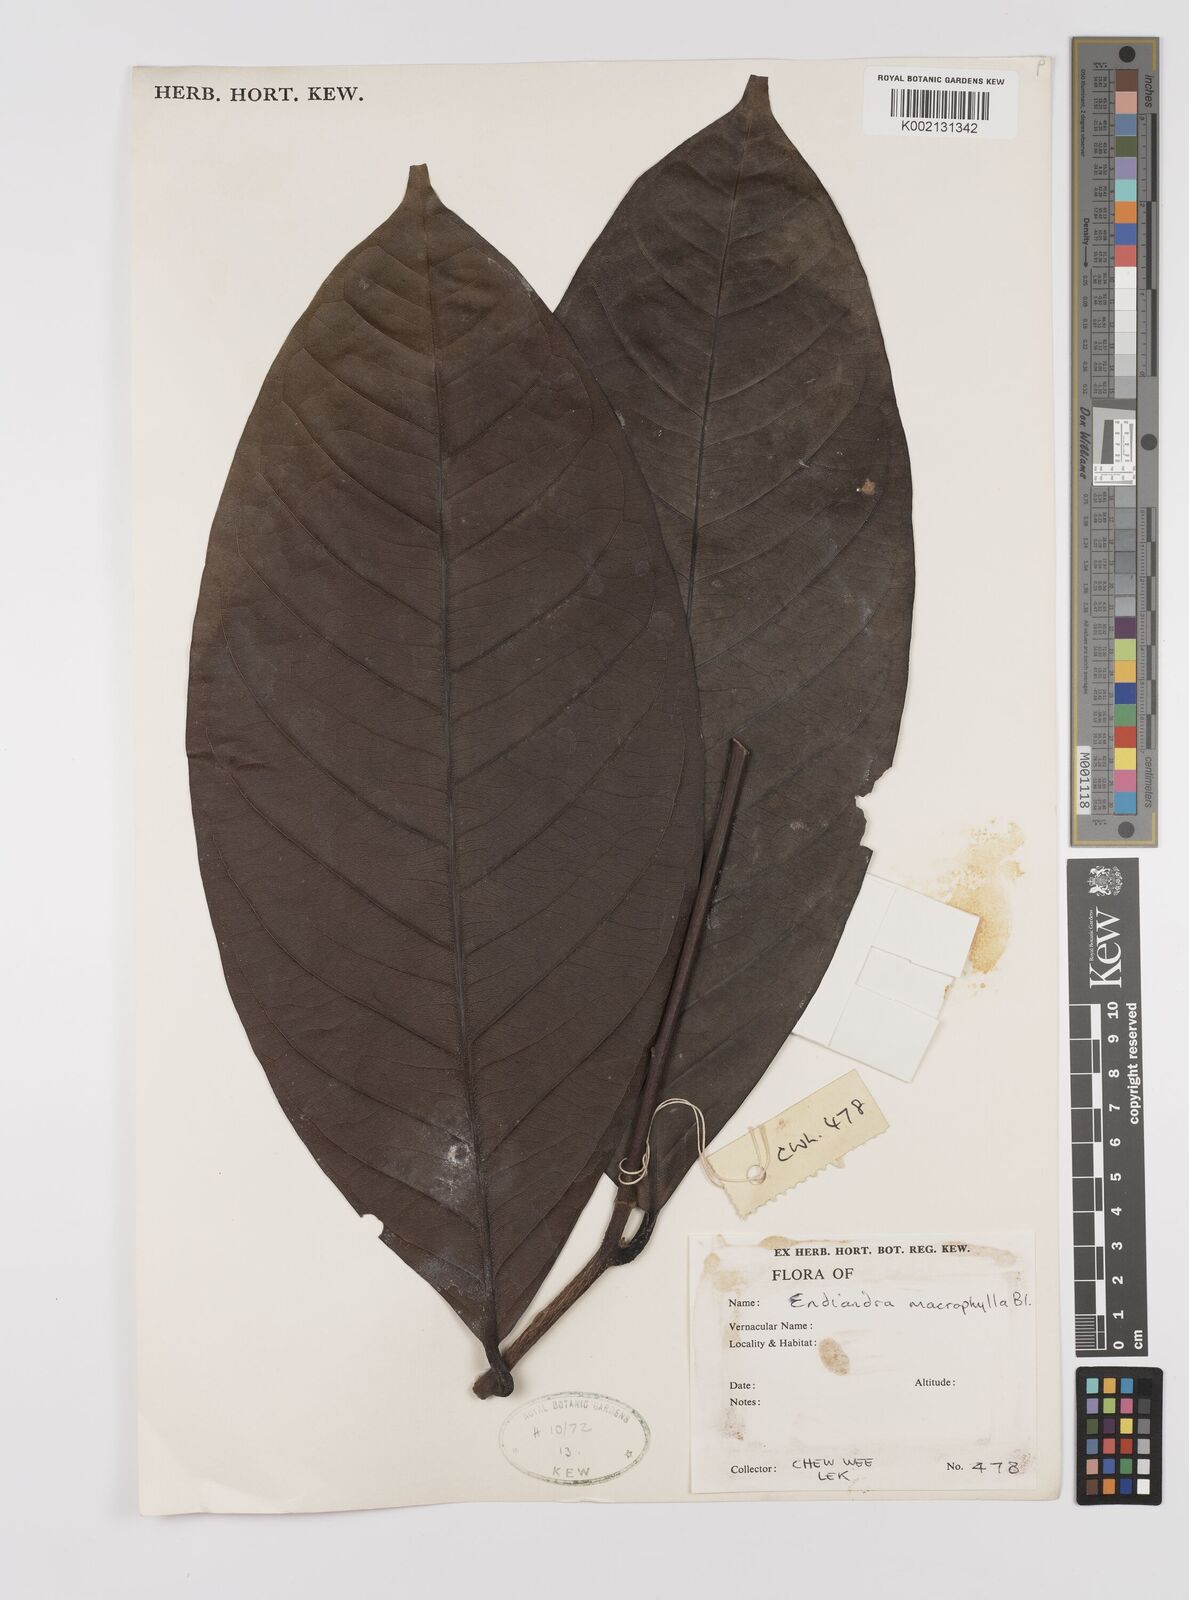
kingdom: Plantae
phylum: Tracheophyta
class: Magnoliopsida
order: Laurales
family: Lauraceae
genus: Endiandra
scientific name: Endiandra macrophylla
